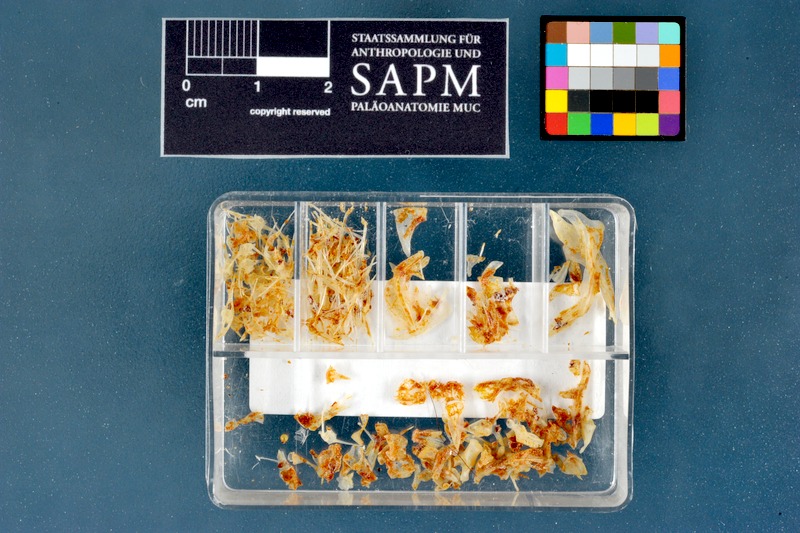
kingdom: Animalia
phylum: Chordata
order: Perciformes
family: Blenniidae
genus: Lipophrys
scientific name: Lipophrys trigloides
